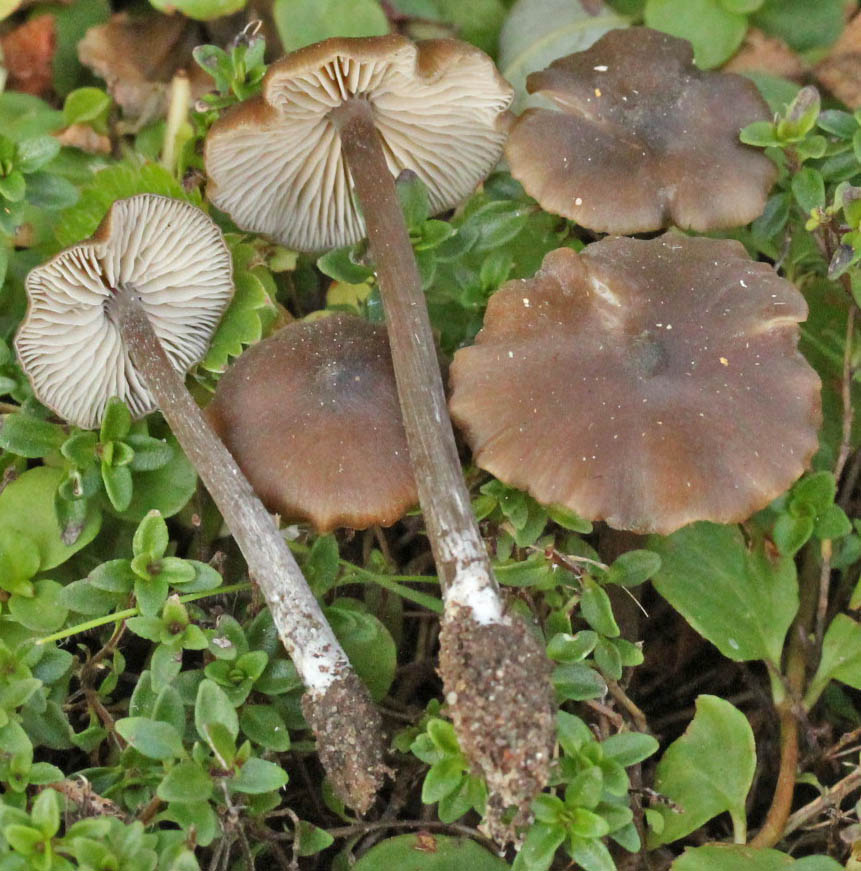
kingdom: Fungi
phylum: Basidiomycota
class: Agaricomycetes
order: Agaricales
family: Entolomataceae
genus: Entoloma
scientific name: Entoloma hebes
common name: krat-rødblad
